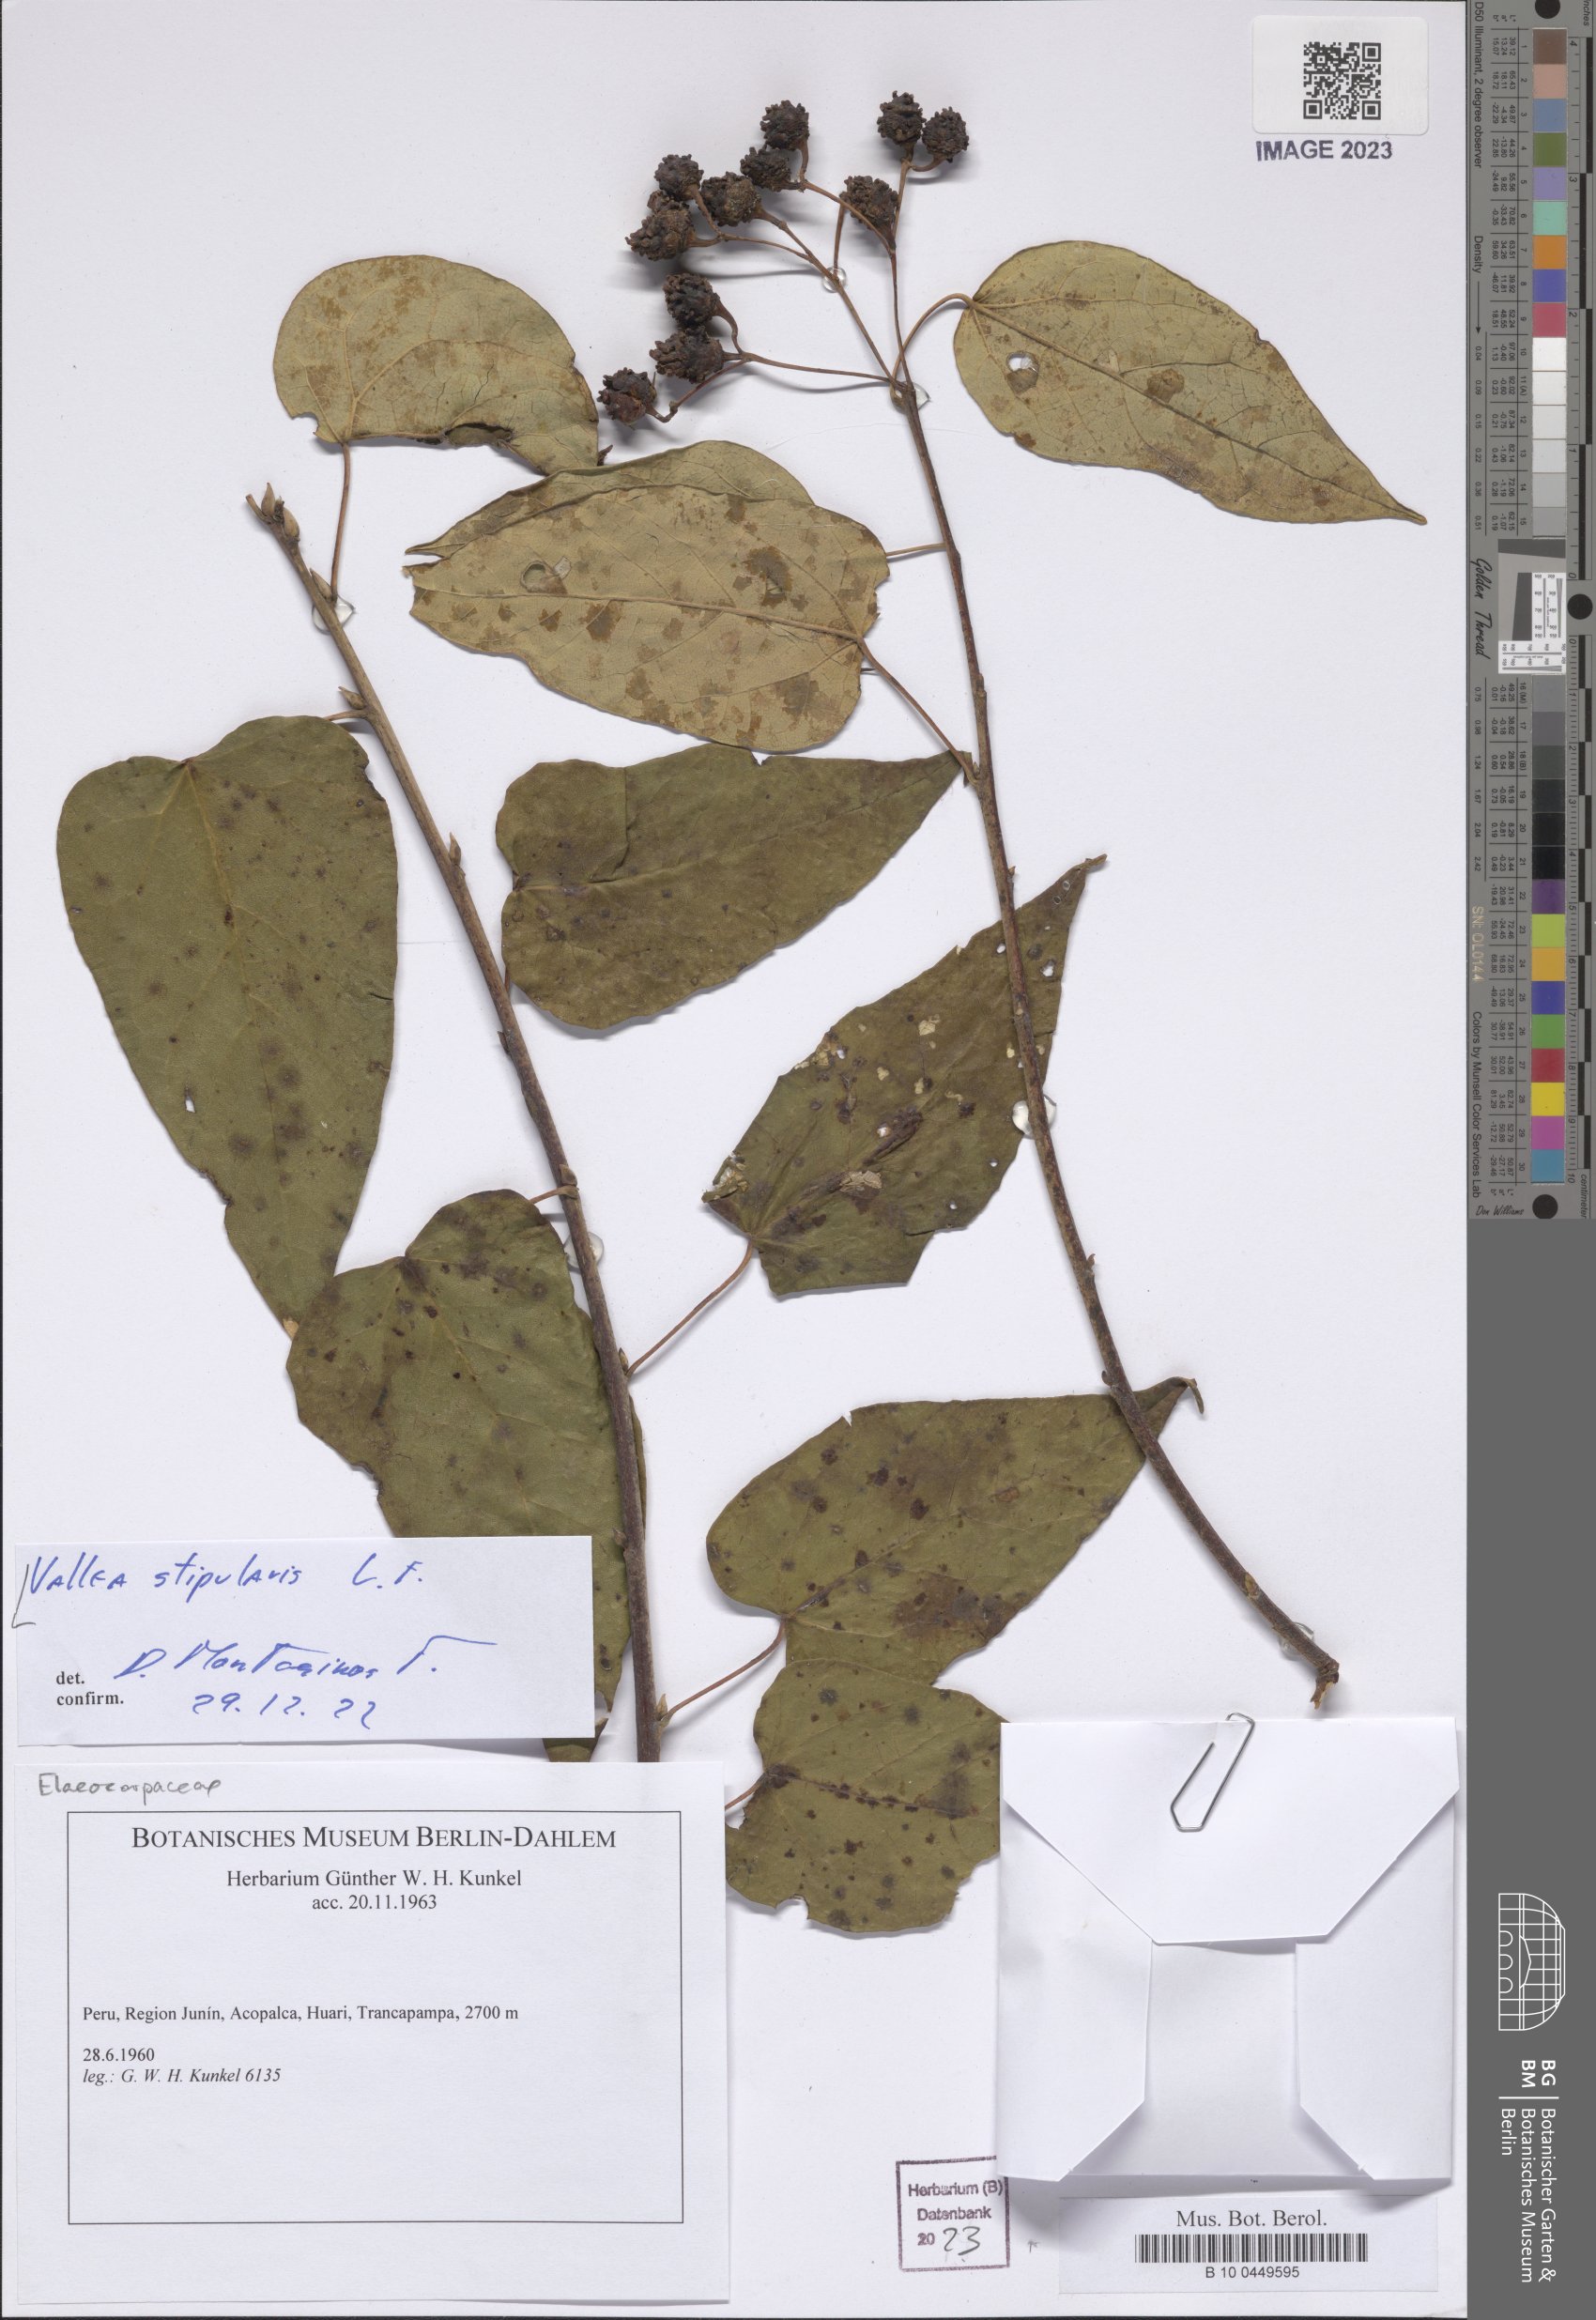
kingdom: Plantae
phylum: Tracheophyta
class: Magnoliopsida
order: Oxalidales
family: Elaeocarpaceae
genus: Vallea
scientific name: Vallea stipularis
